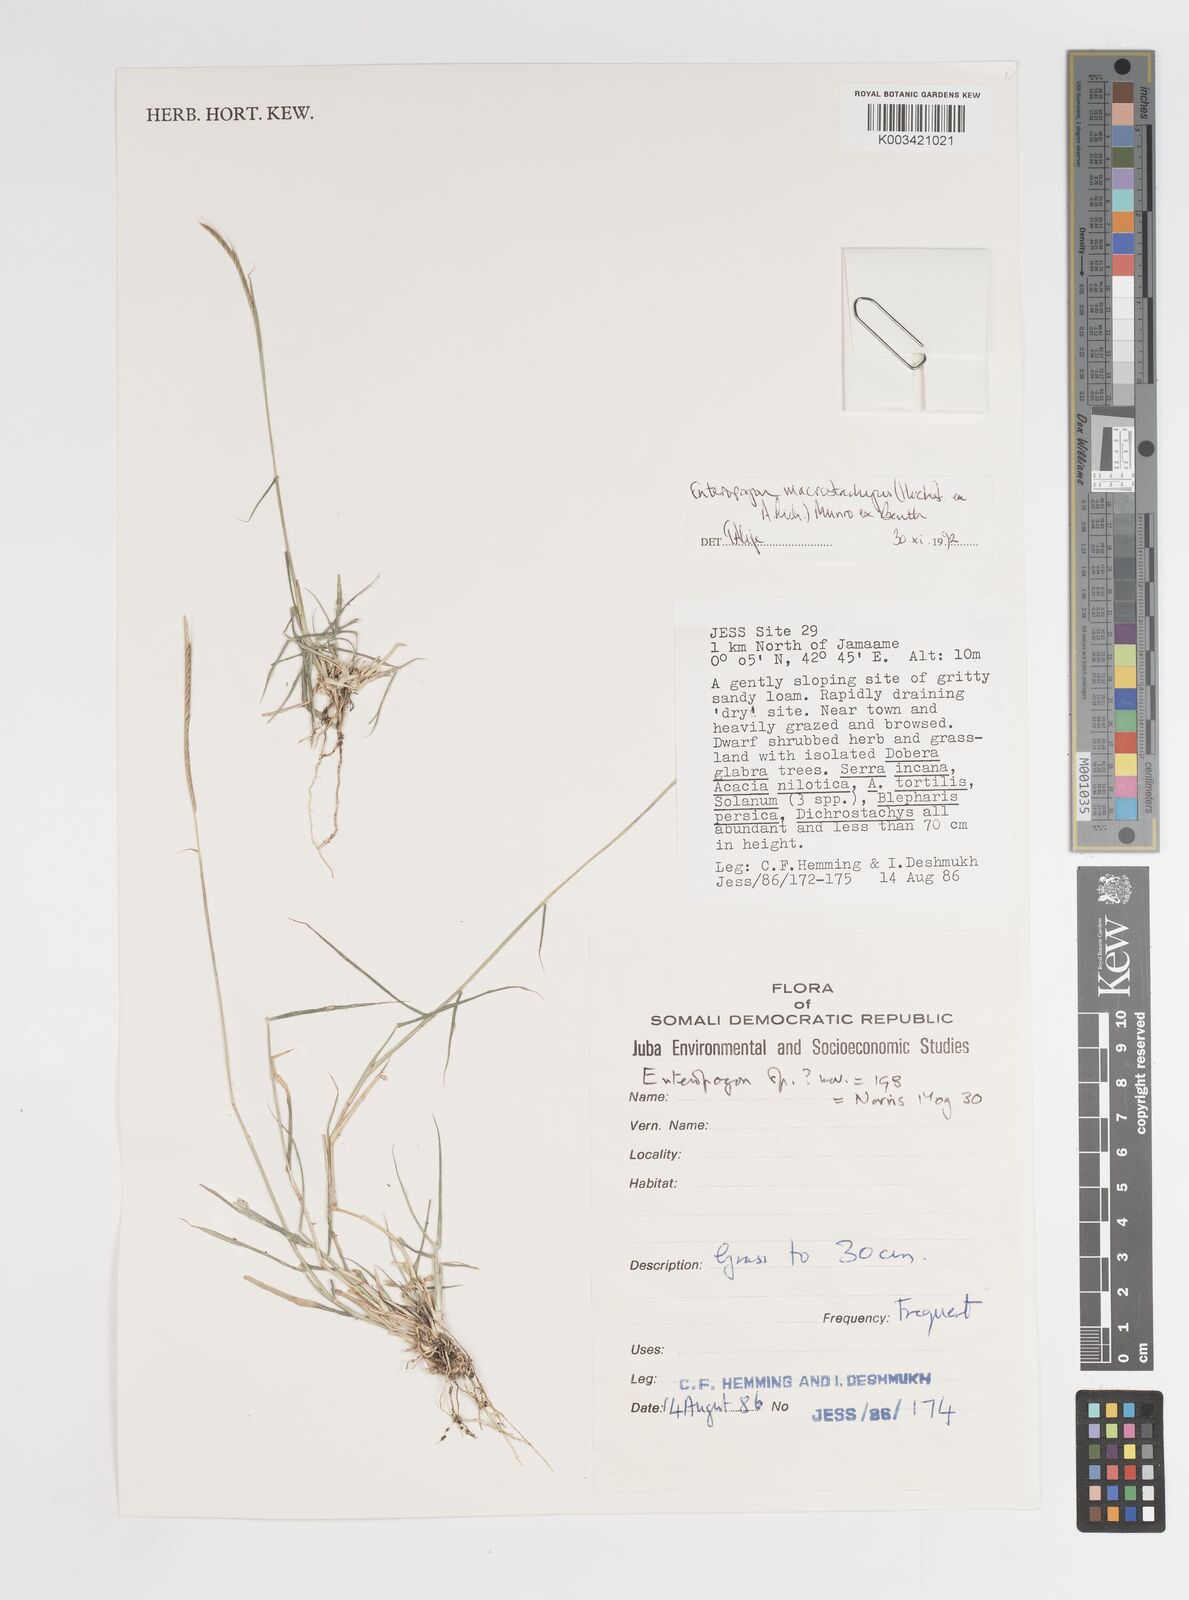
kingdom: Plantae
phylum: Tracheophyta
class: Liliopsida
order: Poales
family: Poaceae
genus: Enteropogon
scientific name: Enteropogon macrostachyus
